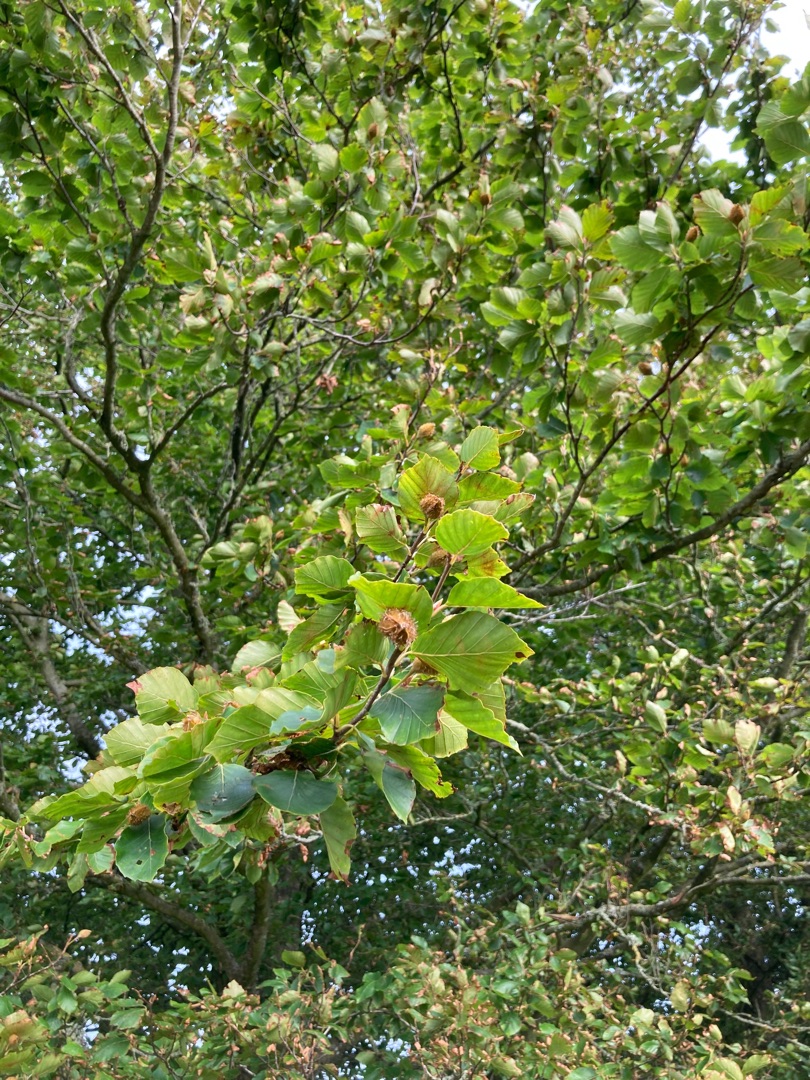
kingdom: Plantae
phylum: Tracheophyta
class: Magnoliopsida
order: Fagales
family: Fagaceae
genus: Fagus
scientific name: Fagus sylvatica
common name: Bøg
